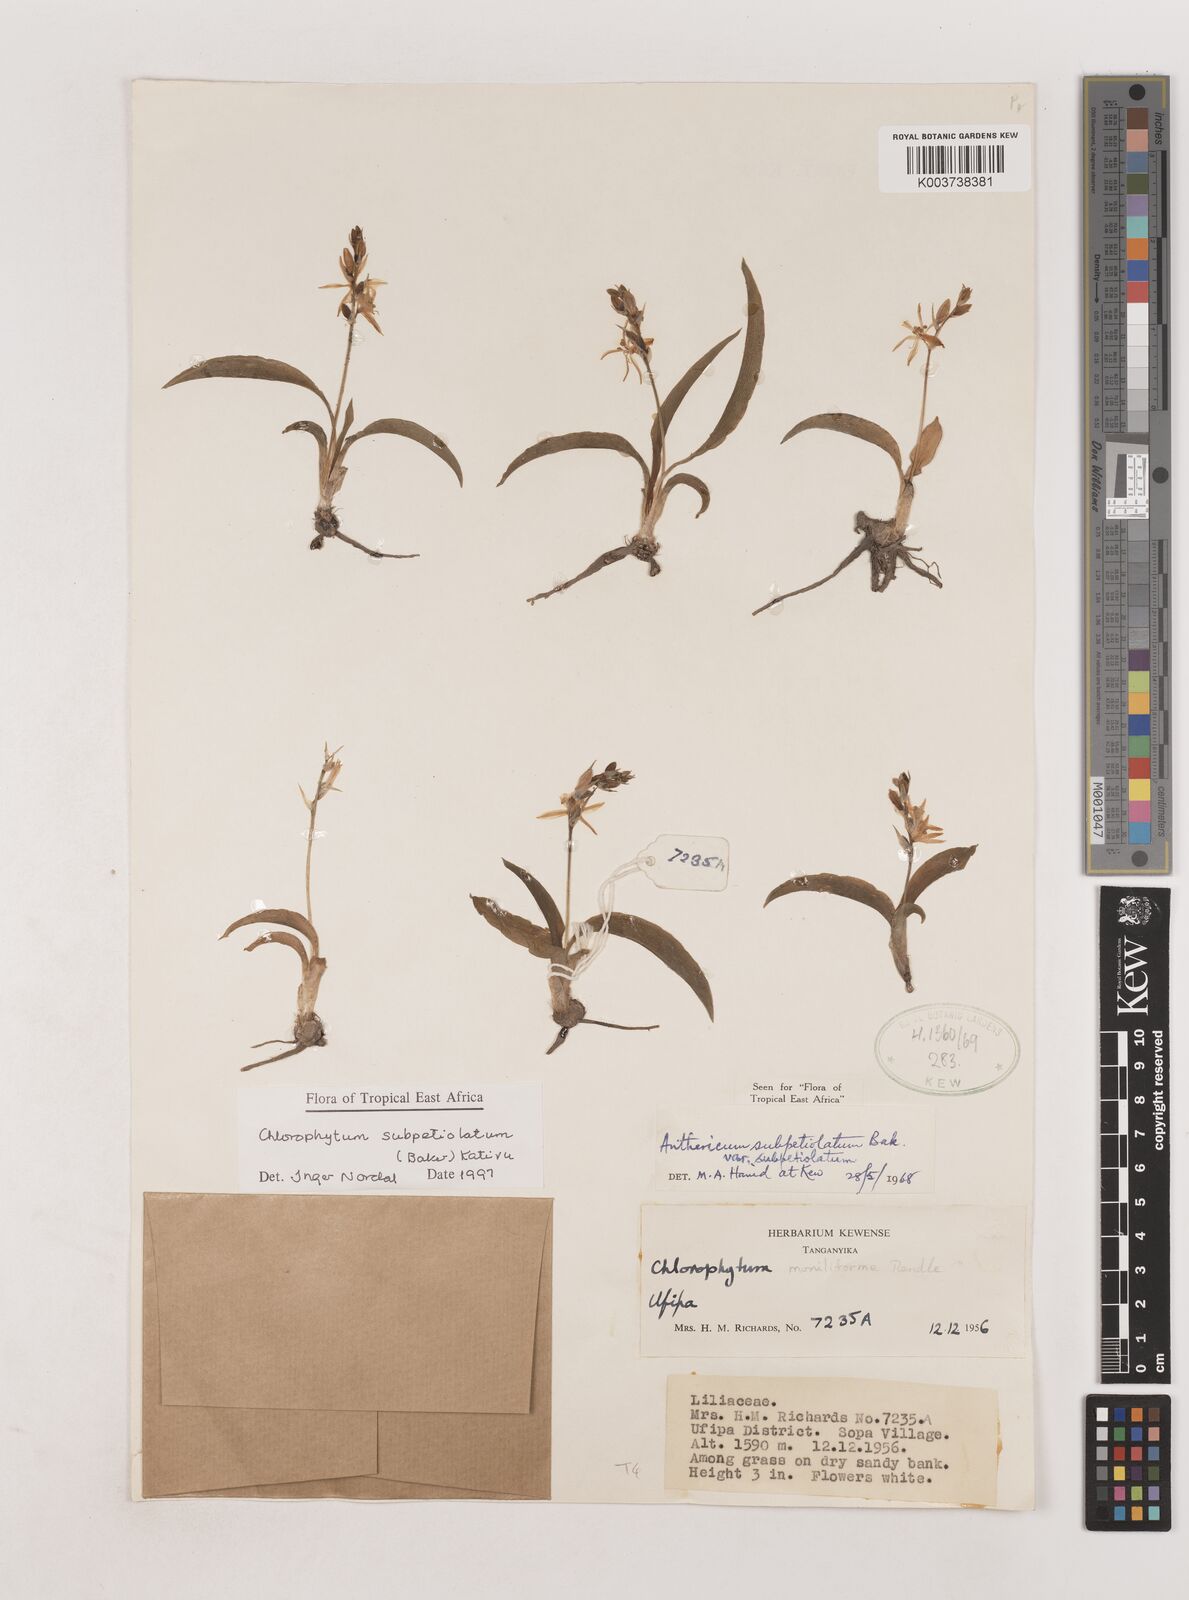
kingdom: Plantae
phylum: Tracheophyta
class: Liliopsida
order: Asparagales
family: Asparagaceae
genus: Chlorophytum
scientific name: Chlorophytum subpetiolatum
